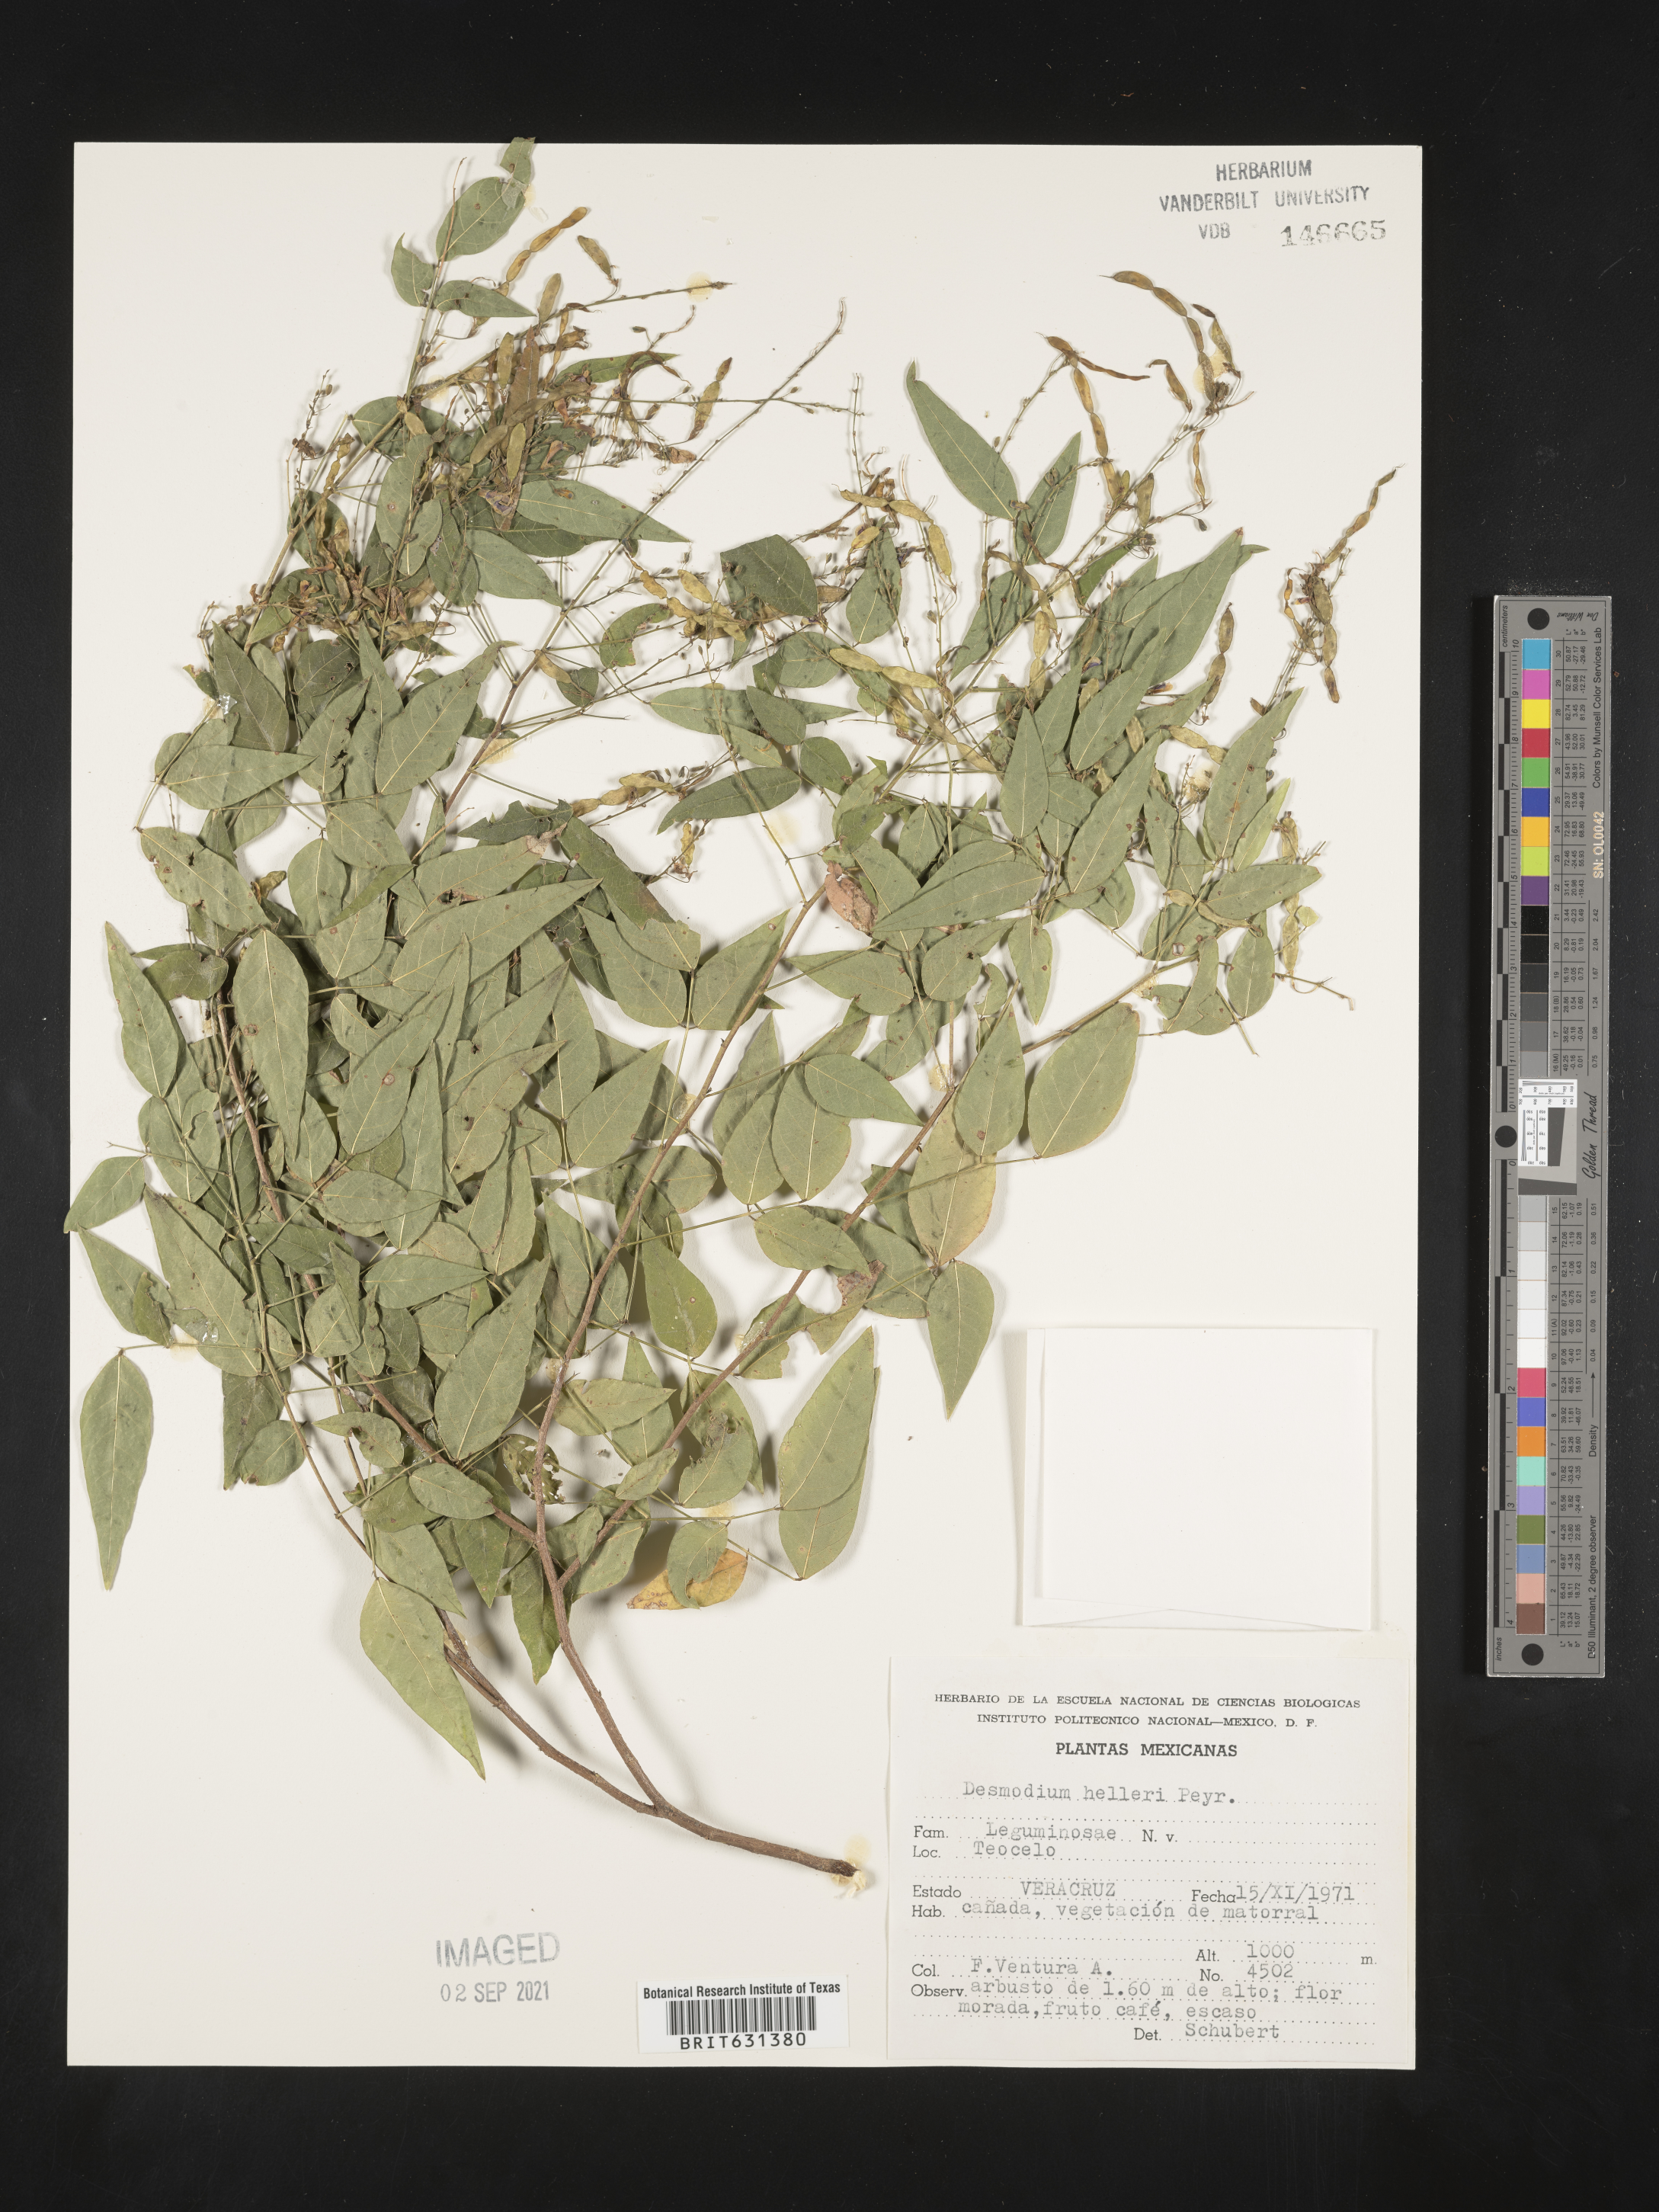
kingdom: Plantae
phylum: Tracheophyta
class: Magnoliopsida
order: Fabales
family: Fabaceae
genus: Desmodium
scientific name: Desmodium helleri
